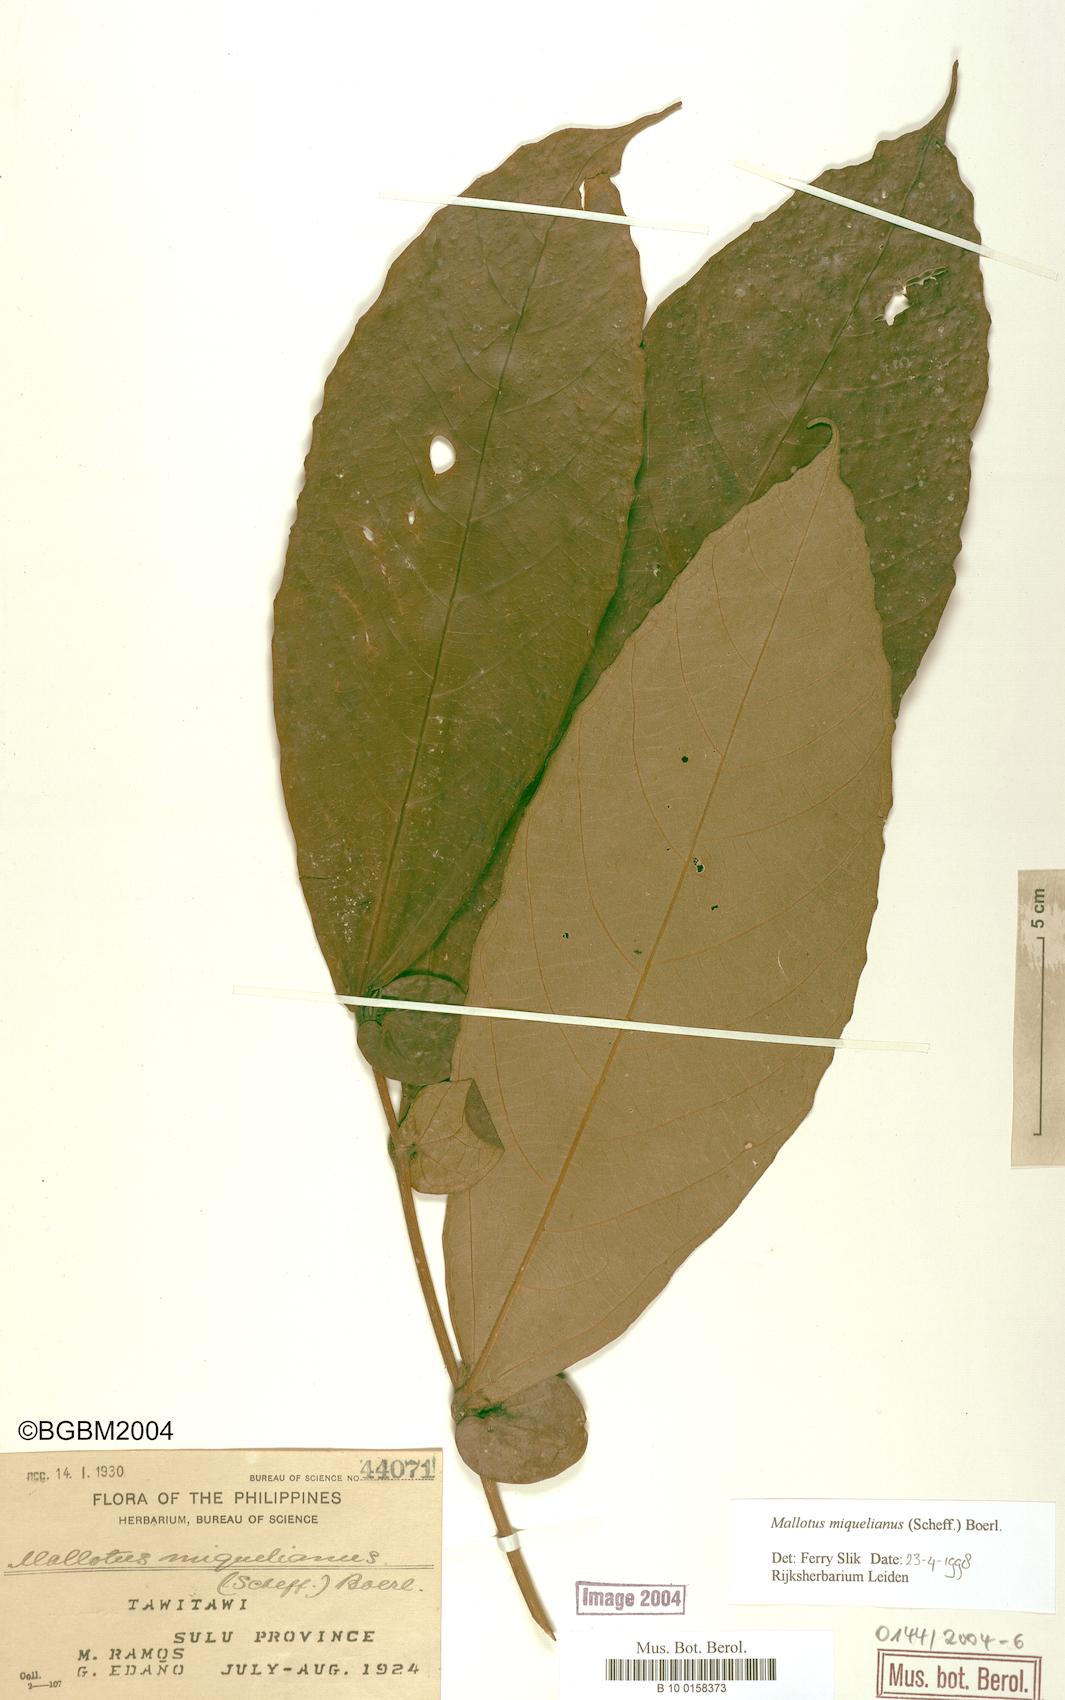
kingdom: Plantae
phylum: Tracheophyta
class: Magnoliopsida
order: Malpighiales
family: Euphorbiaceae
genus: Mallotus
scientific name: Mallotus miquelianus
